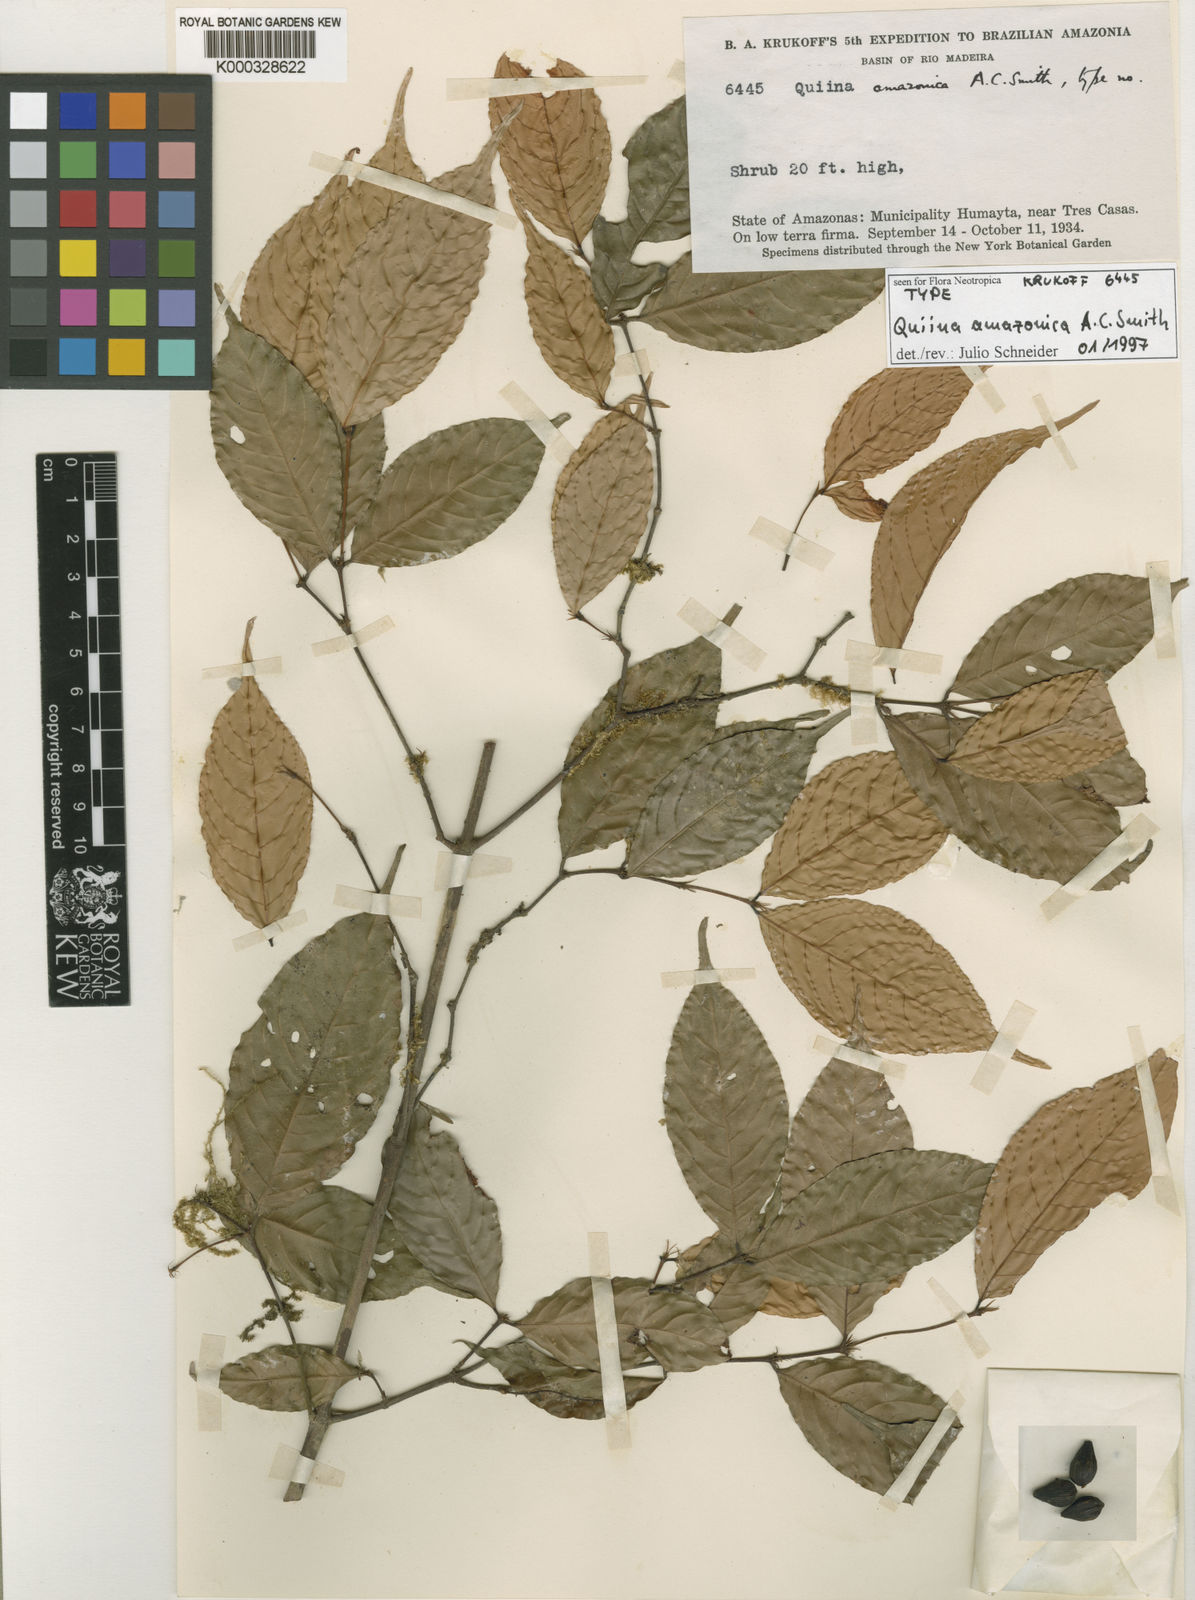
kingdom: Plantae
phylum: Tracheophyta
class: Magnoliopsida
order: Malpighiales
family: Quiinaceae
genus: Quiina
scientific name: Quiina amazonica
